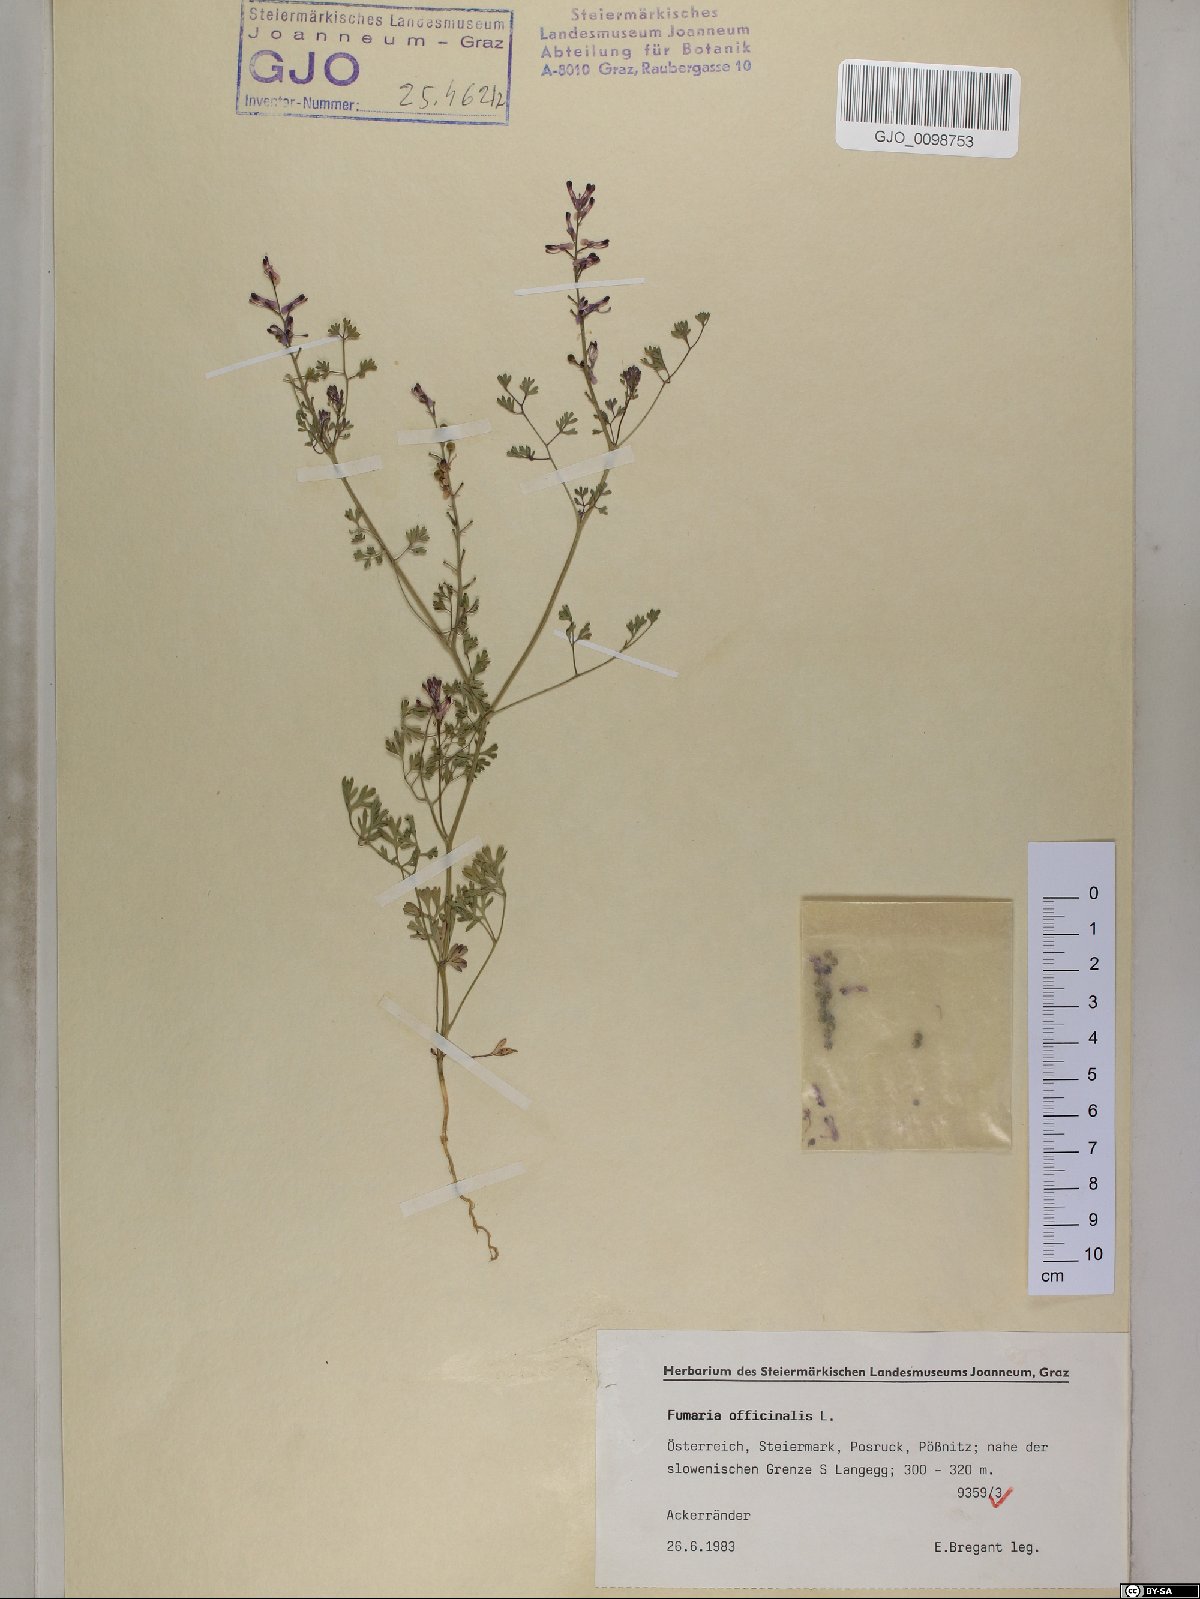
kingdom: Plantae
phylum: Tracheophyta
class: Magnoliopsida
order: Ranunculales
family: Papaveraceae
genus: Fumaria
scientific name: Fumaria officinalis
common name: Common fumitory
